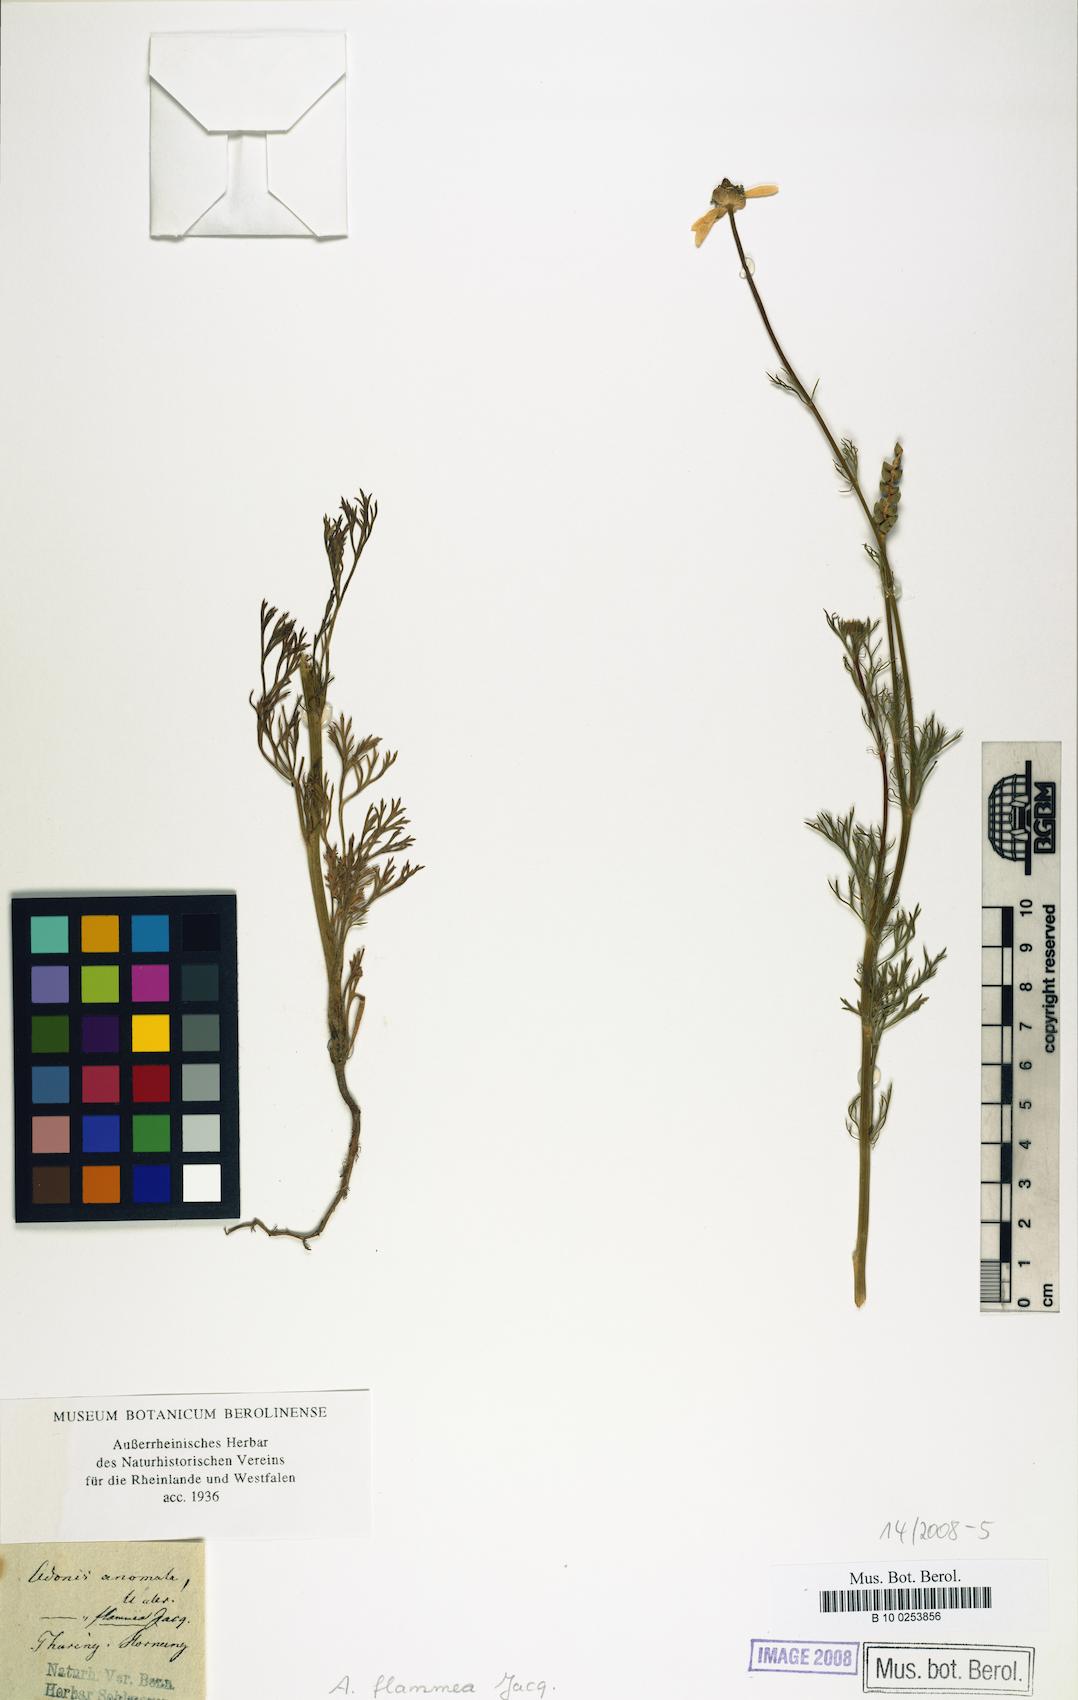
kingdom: Plantae
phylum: Tracheophyta
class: Magnoliopsida
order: Ranunculales
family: Ranunculaceae
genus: Adonis
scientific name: Adonis flammea
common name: Large pheasant's-eye
